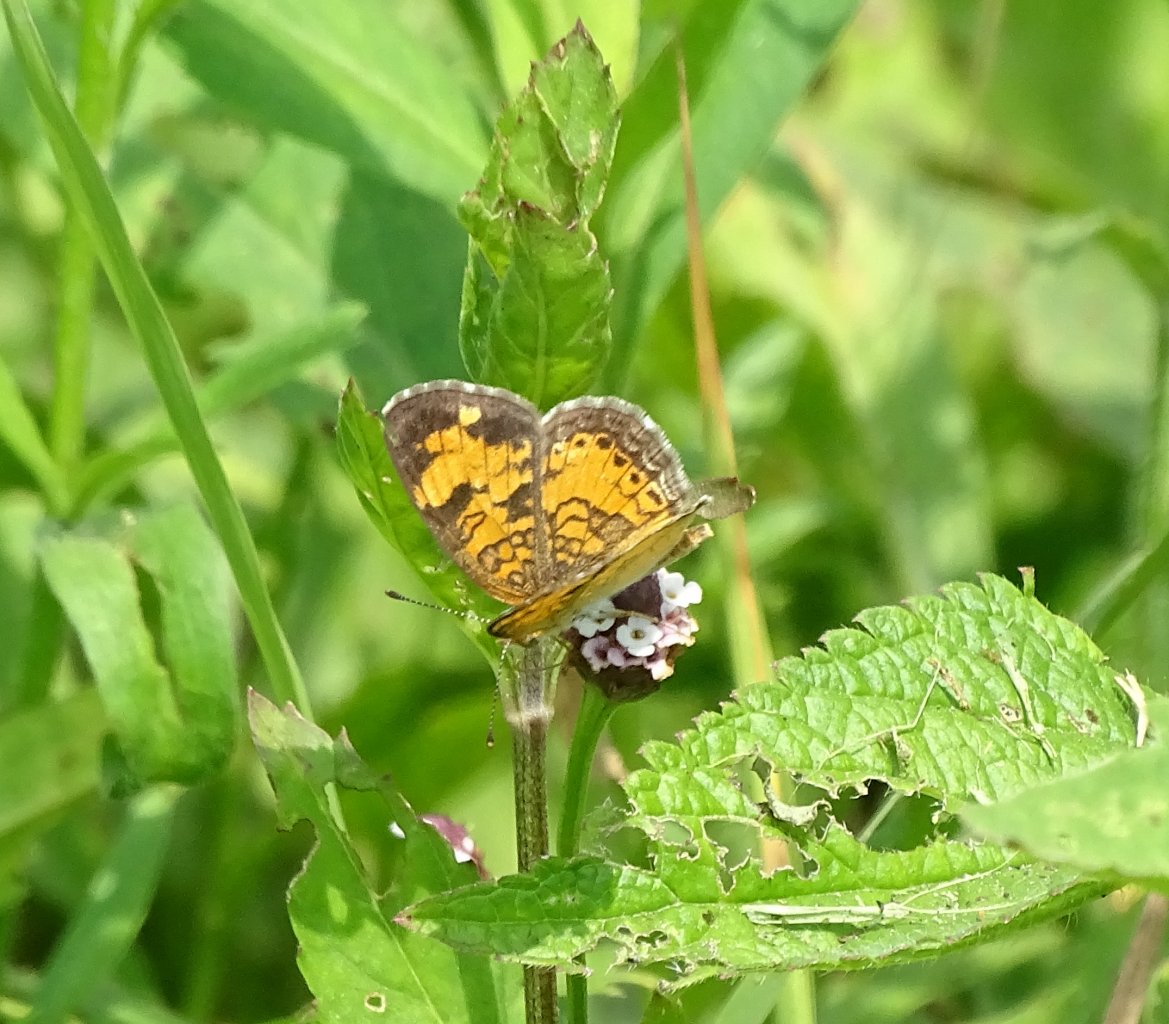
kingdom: Animalia
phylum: Arthropoda
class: Insecta
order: Lepidoptera
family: Nymphalidae
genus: Phyciodes
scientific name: Phyciodes tharos
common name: Pearl Crescent
